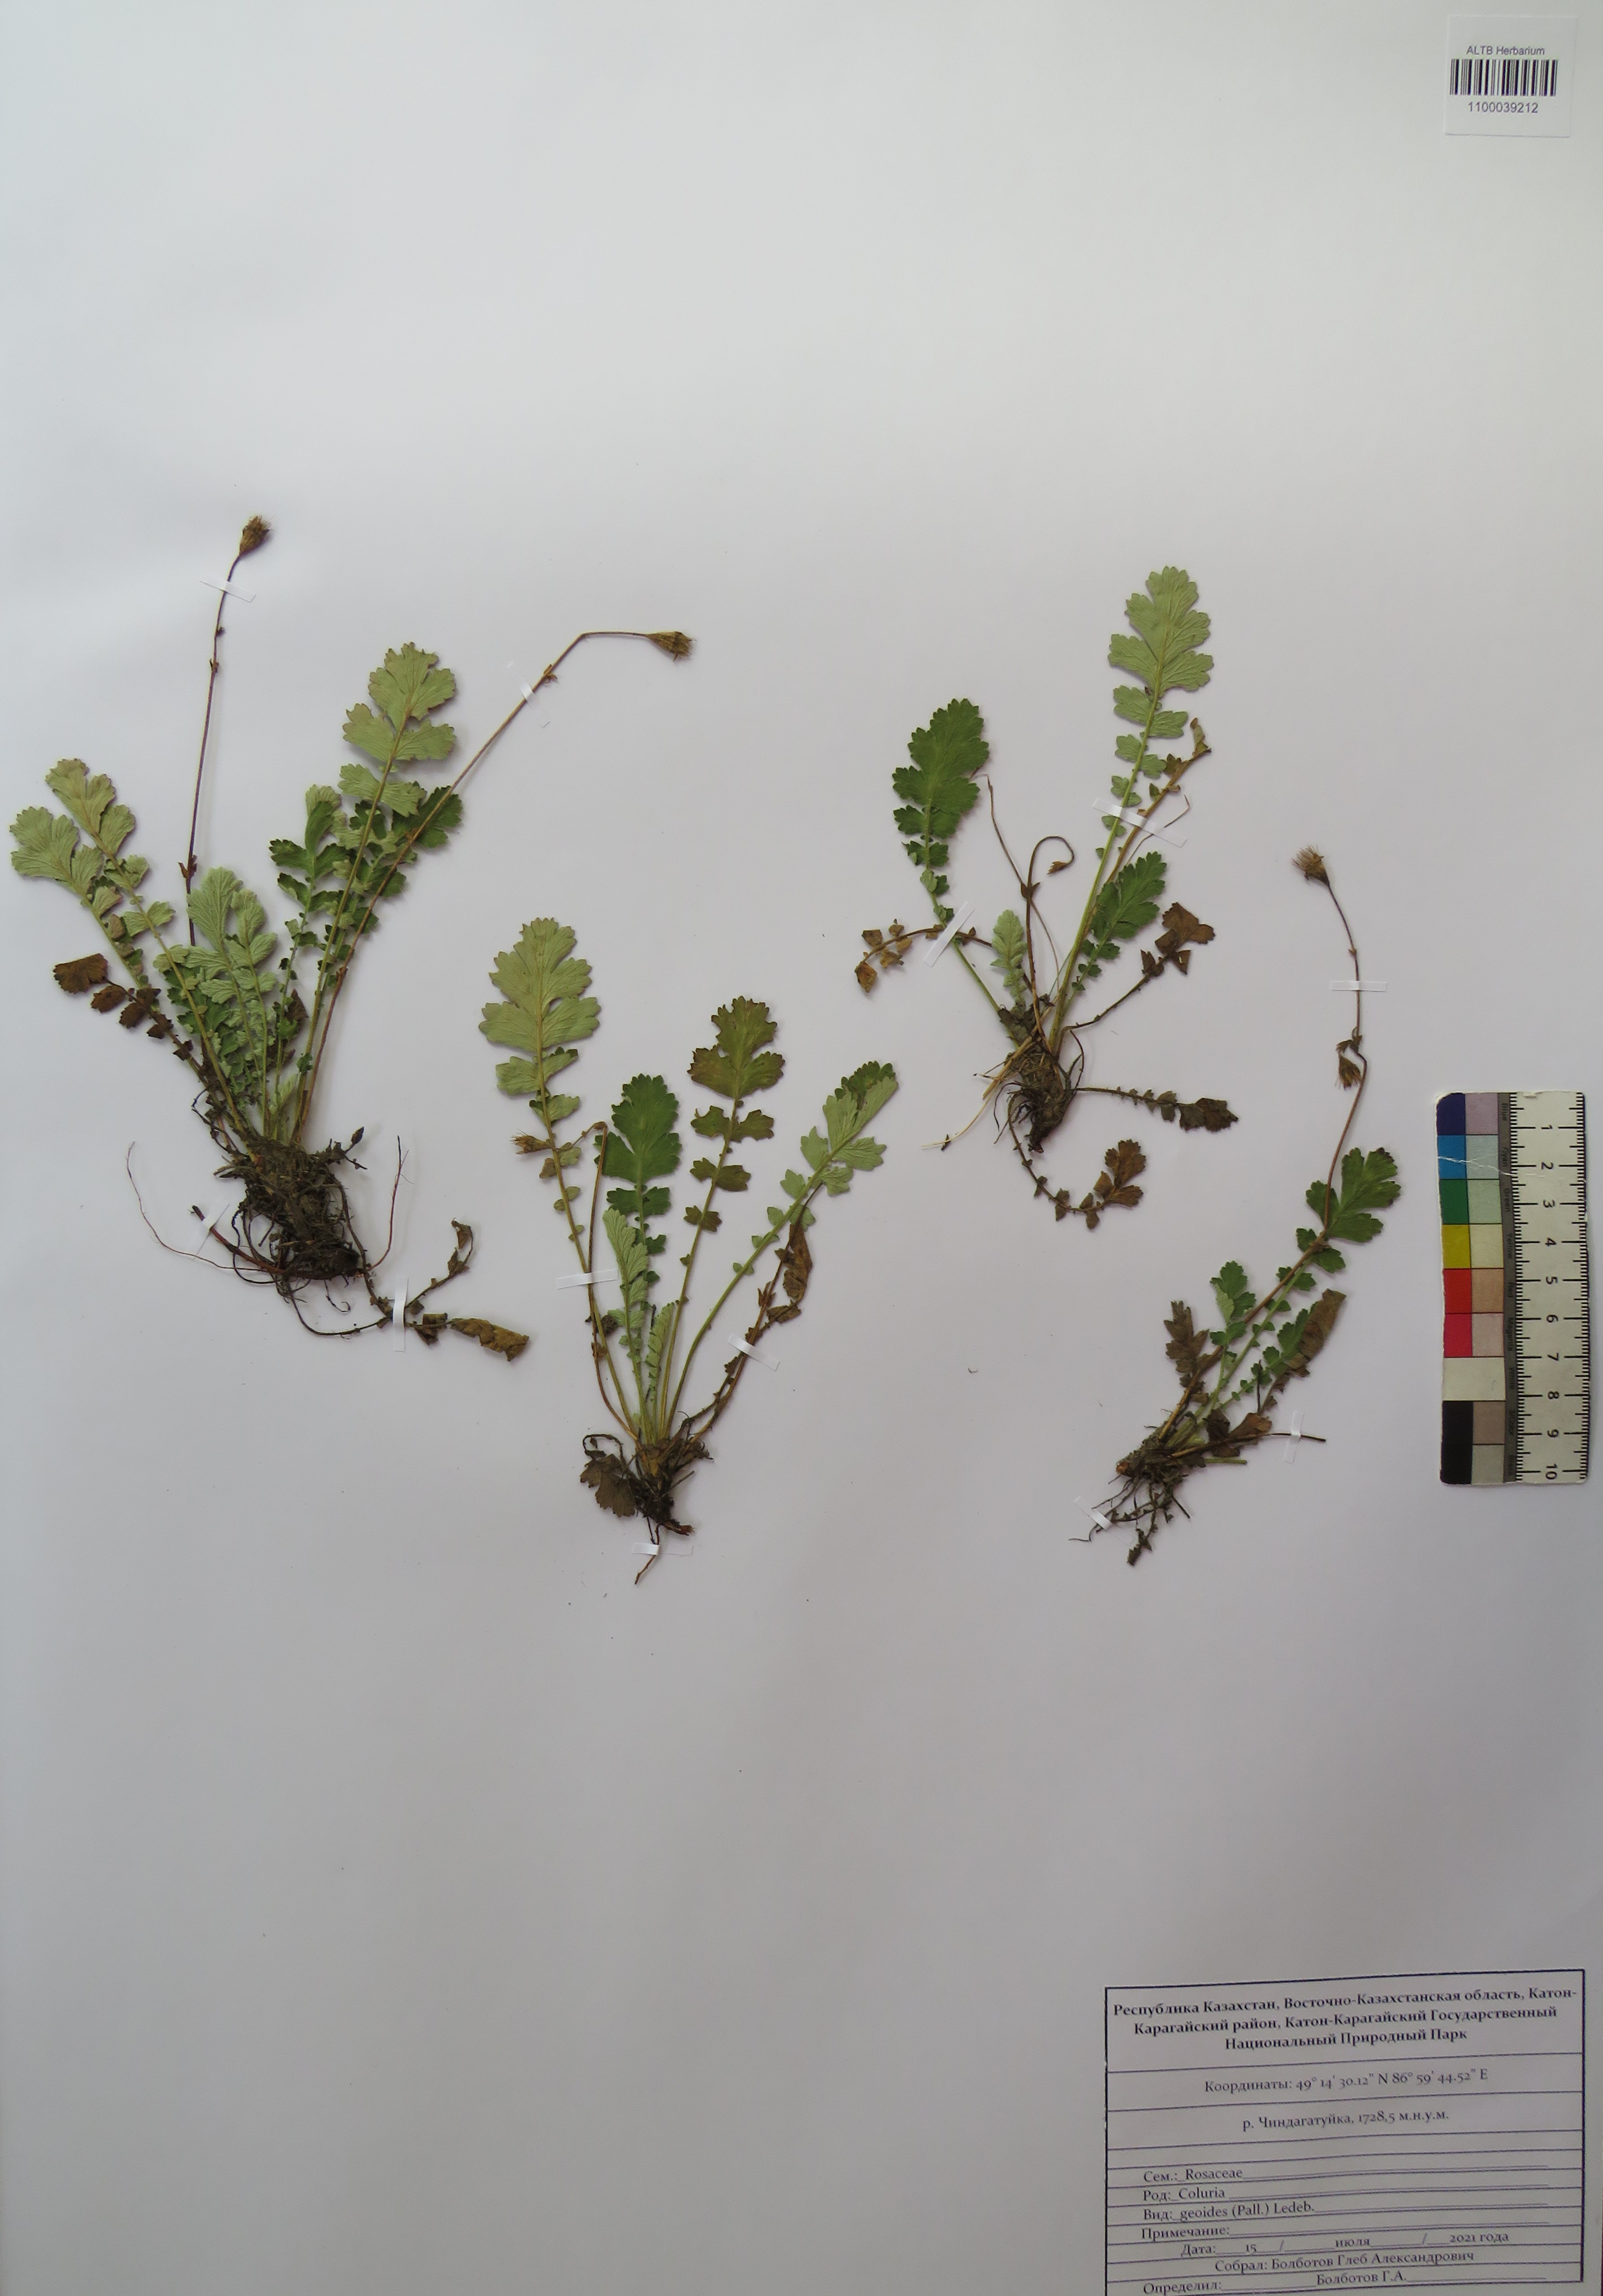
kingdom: Plantae
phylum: Tracheophyta
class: Magnoliopsida
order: Rosales
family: Rosaceae
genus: Geum
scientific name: Geum geoides
